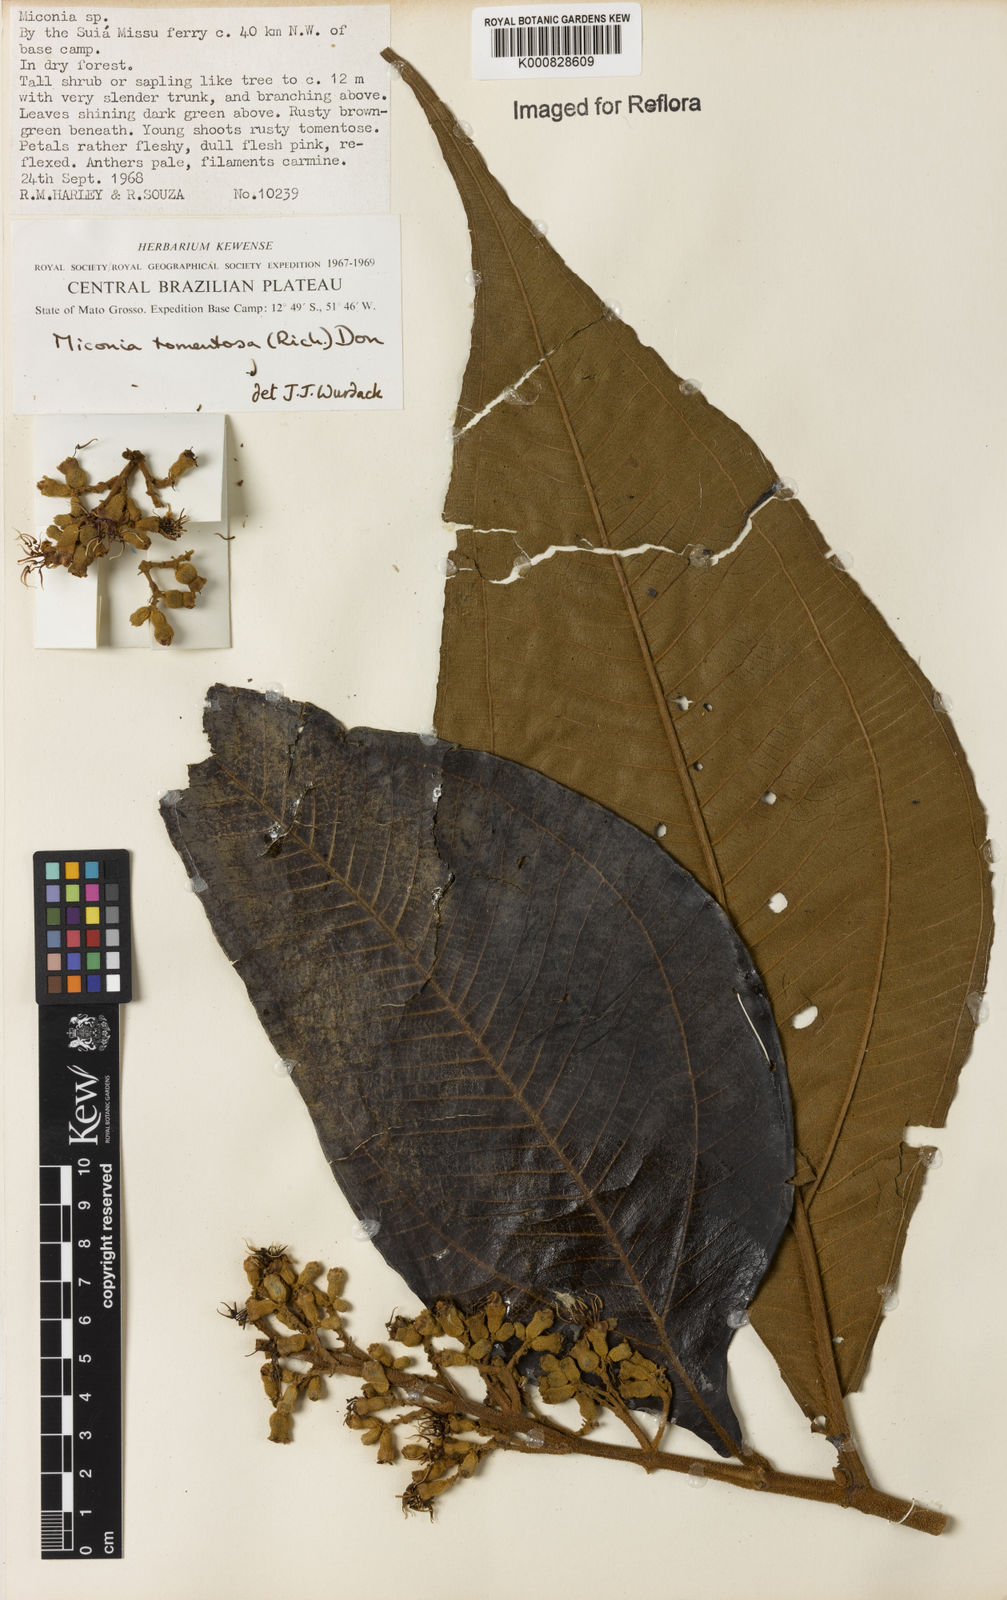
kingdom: Plantae
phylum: Tracheophyta
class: Magnoliopsida
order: Myrtales
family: Melastomataceae
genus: Miconia
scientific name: Miconia tomentosa
